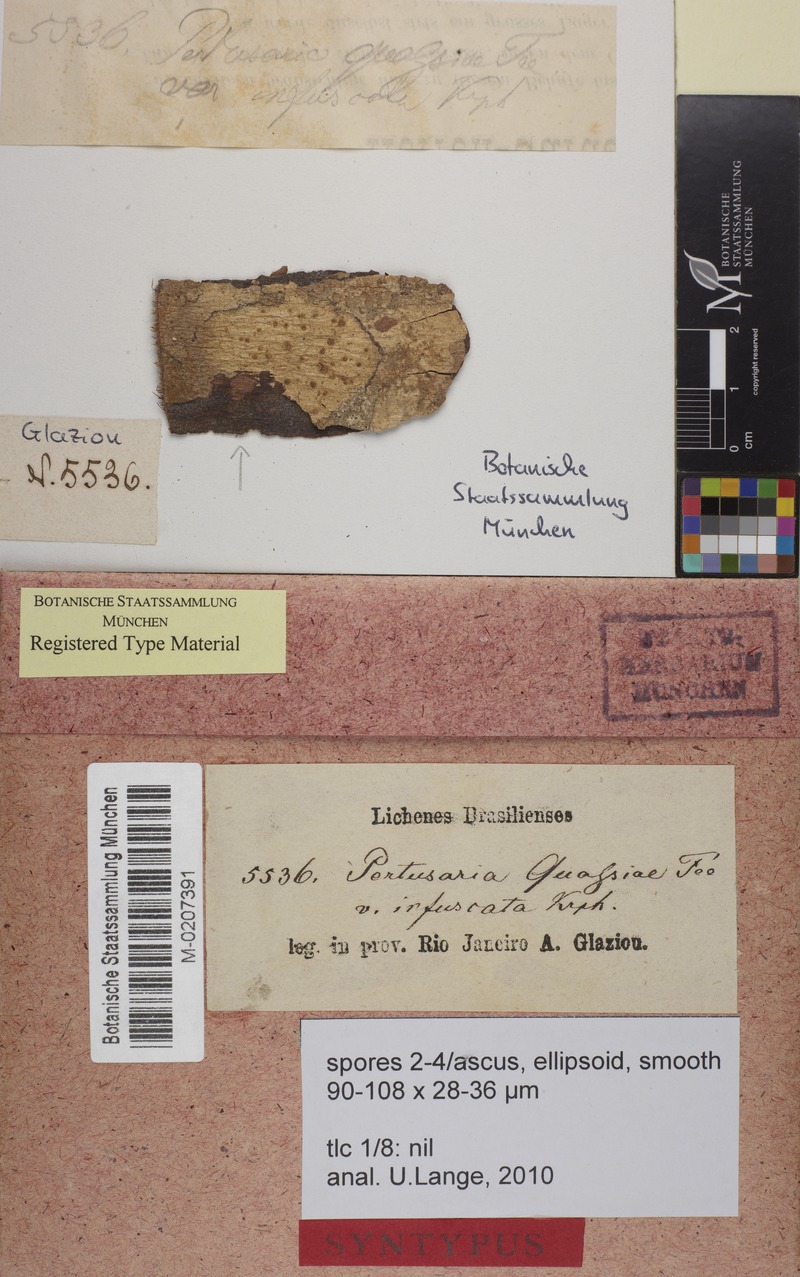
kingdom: Fungi
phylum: Ascomycota
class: Lecanoromycetes
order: Pertusariales
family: Pertusariaceae
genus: Pertusaria
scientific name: Pertusaria quassiae
